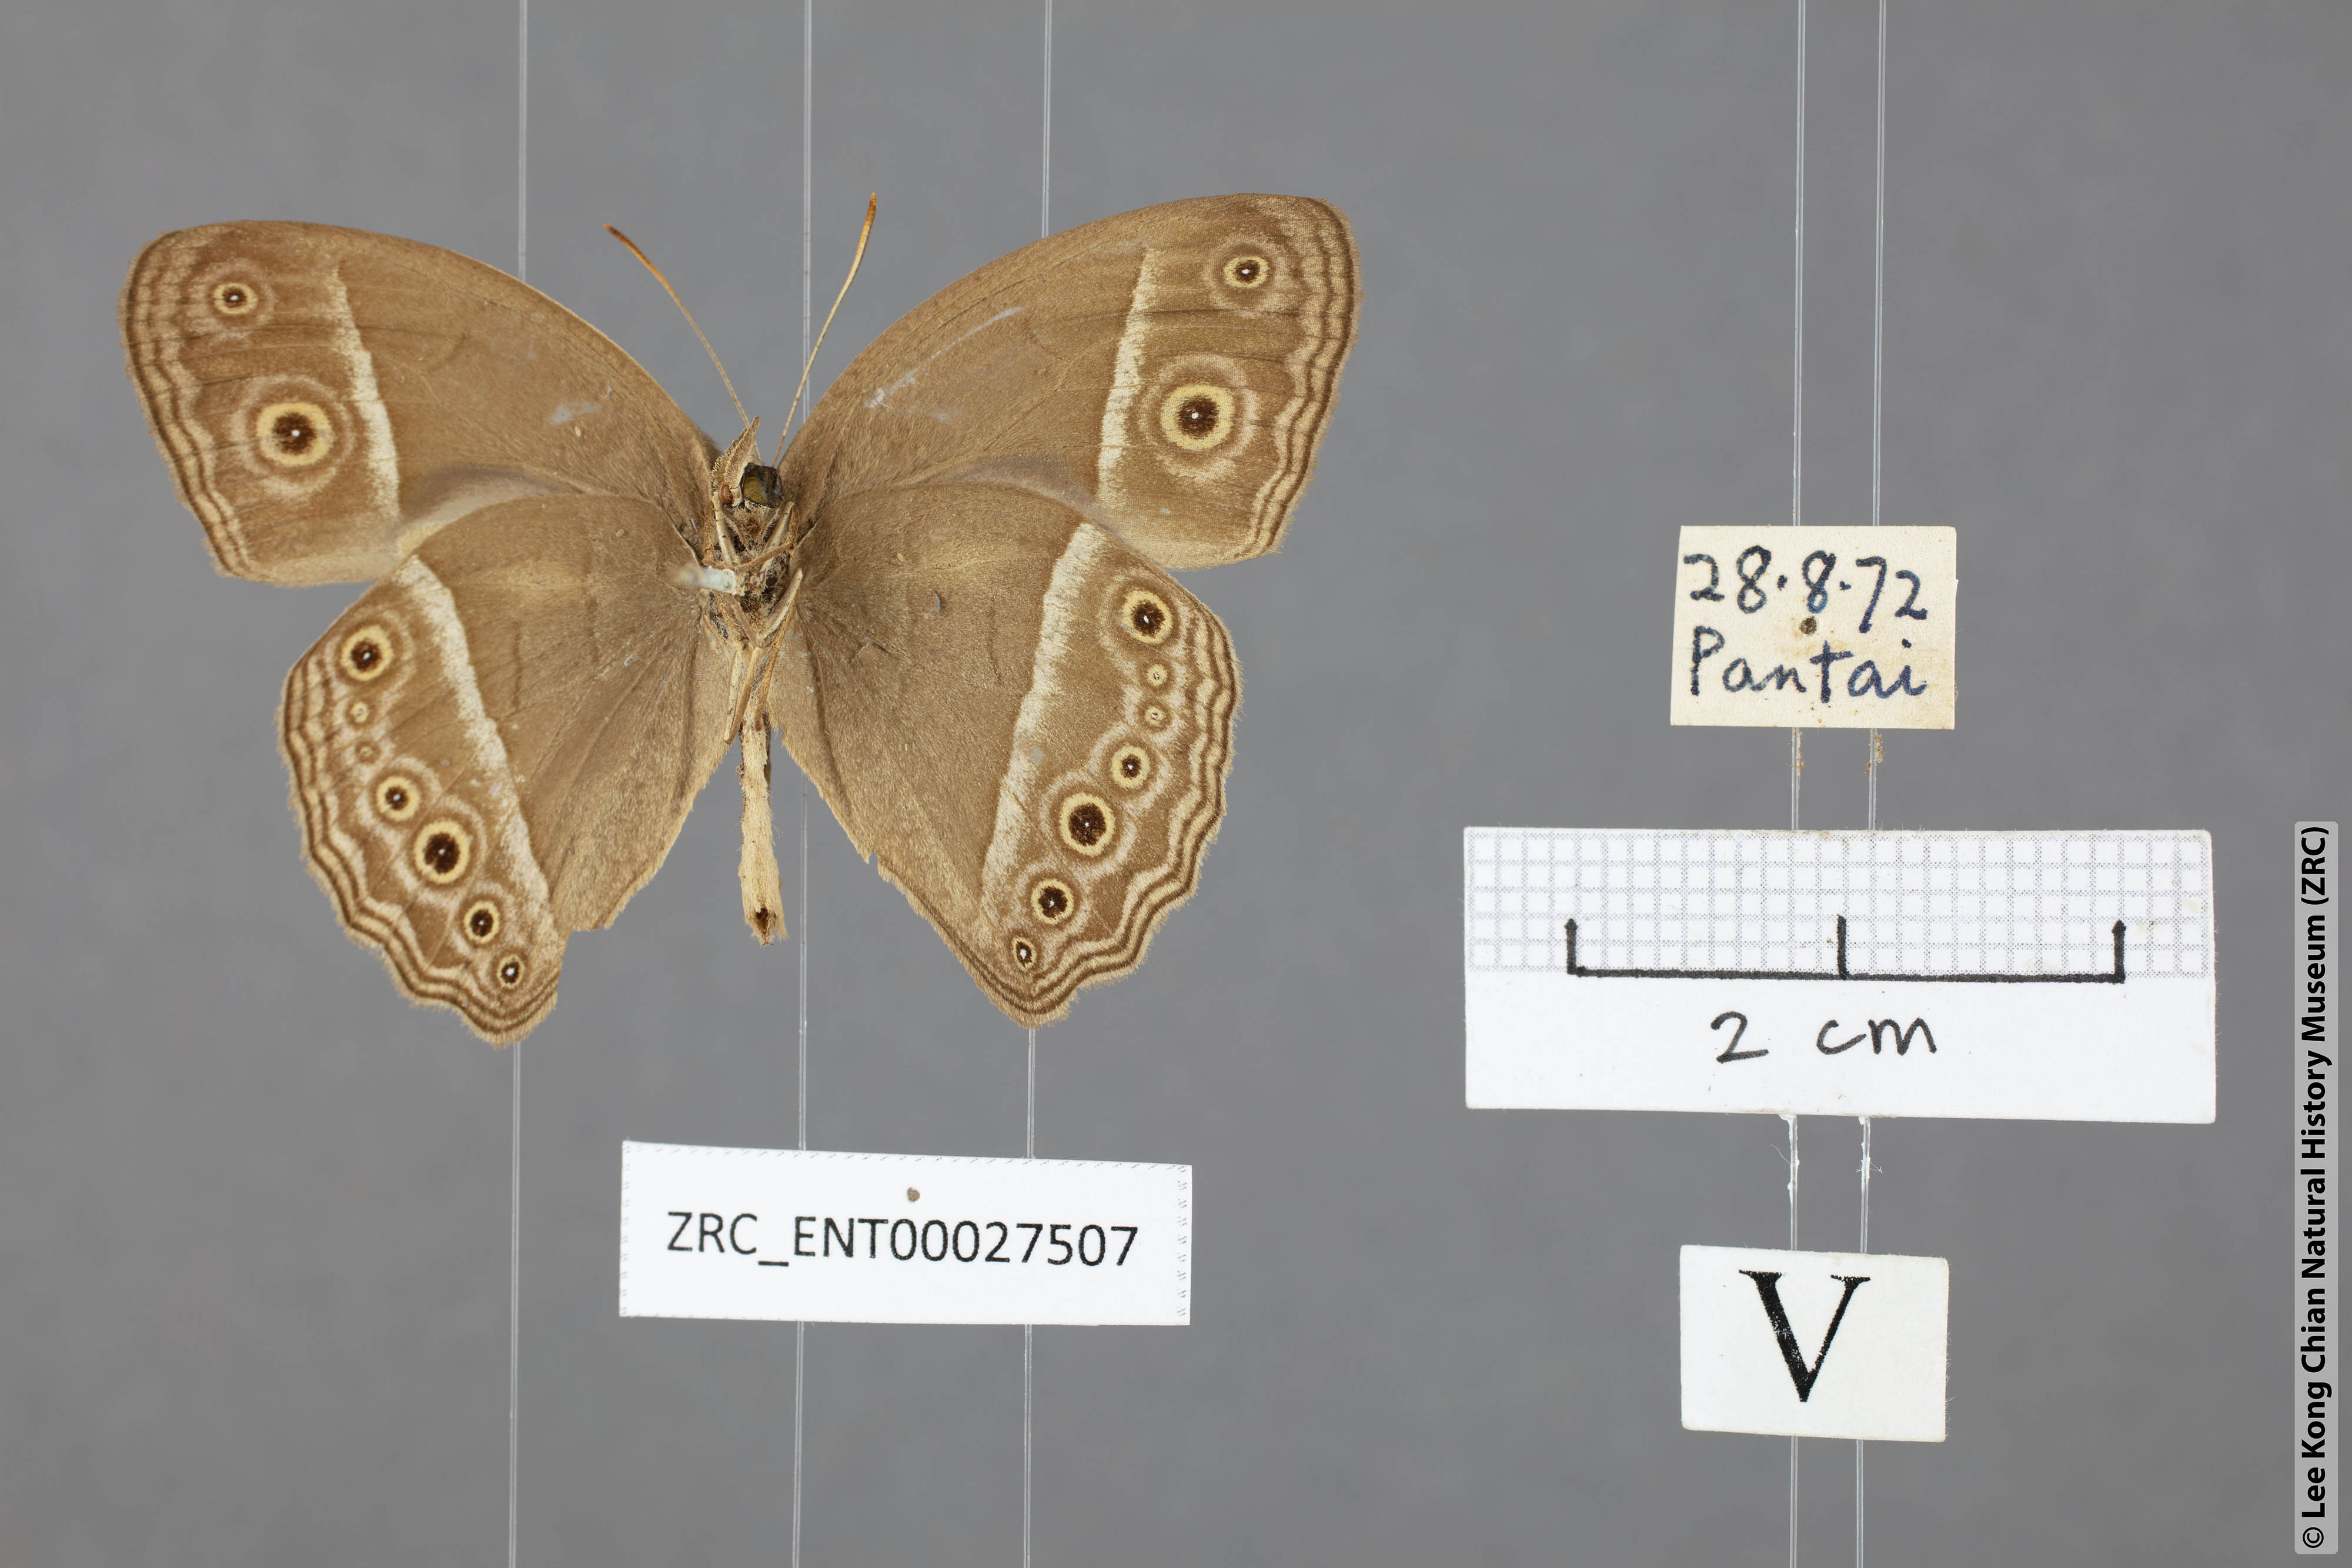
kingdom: Animalia
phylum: Arthropoda
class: Insecta
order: Lepidoptera
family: Nymphalidae
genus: Mycalesis
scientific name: Mycalesis mineus
